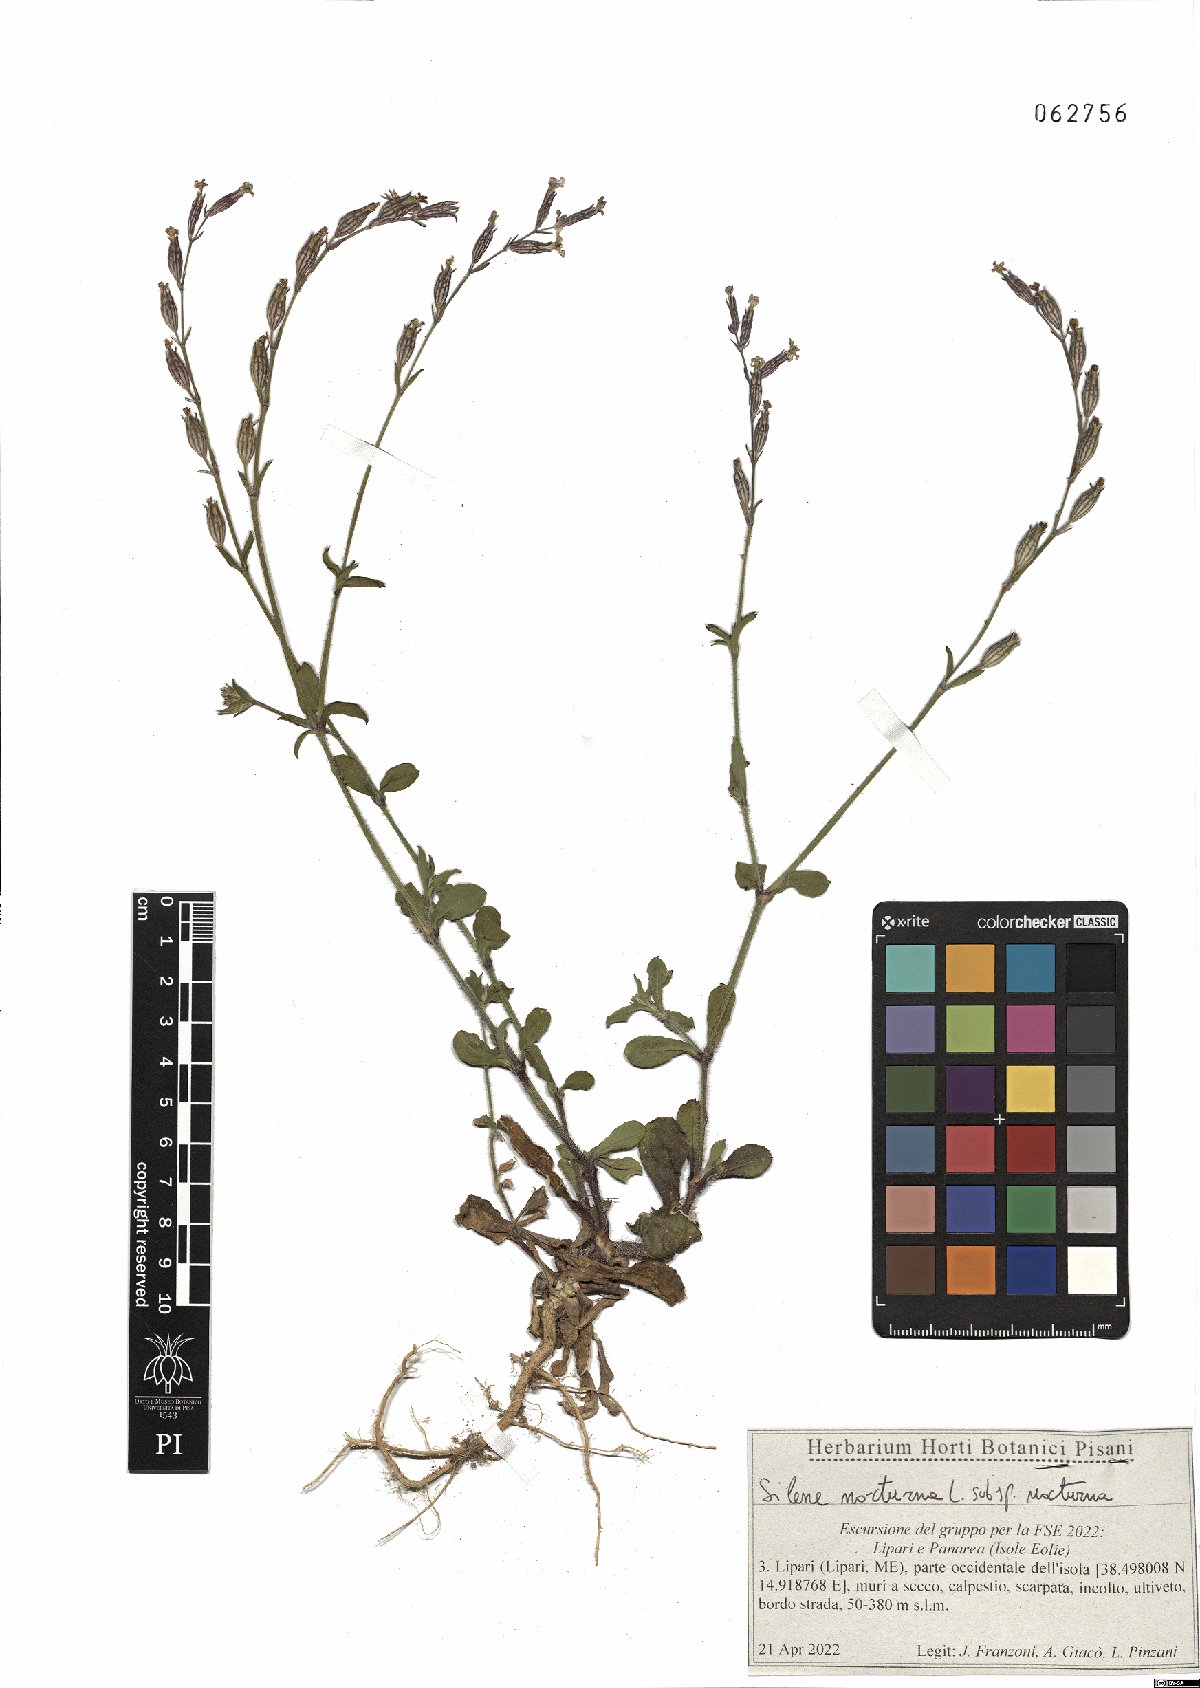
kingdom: Plantae
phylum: Tracheophyta
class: Magnoliopsida
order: Caryophyllales
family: Caryophyllaceae
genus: Silene
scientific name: Silene nocturna
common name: Mediterranean catchfly
